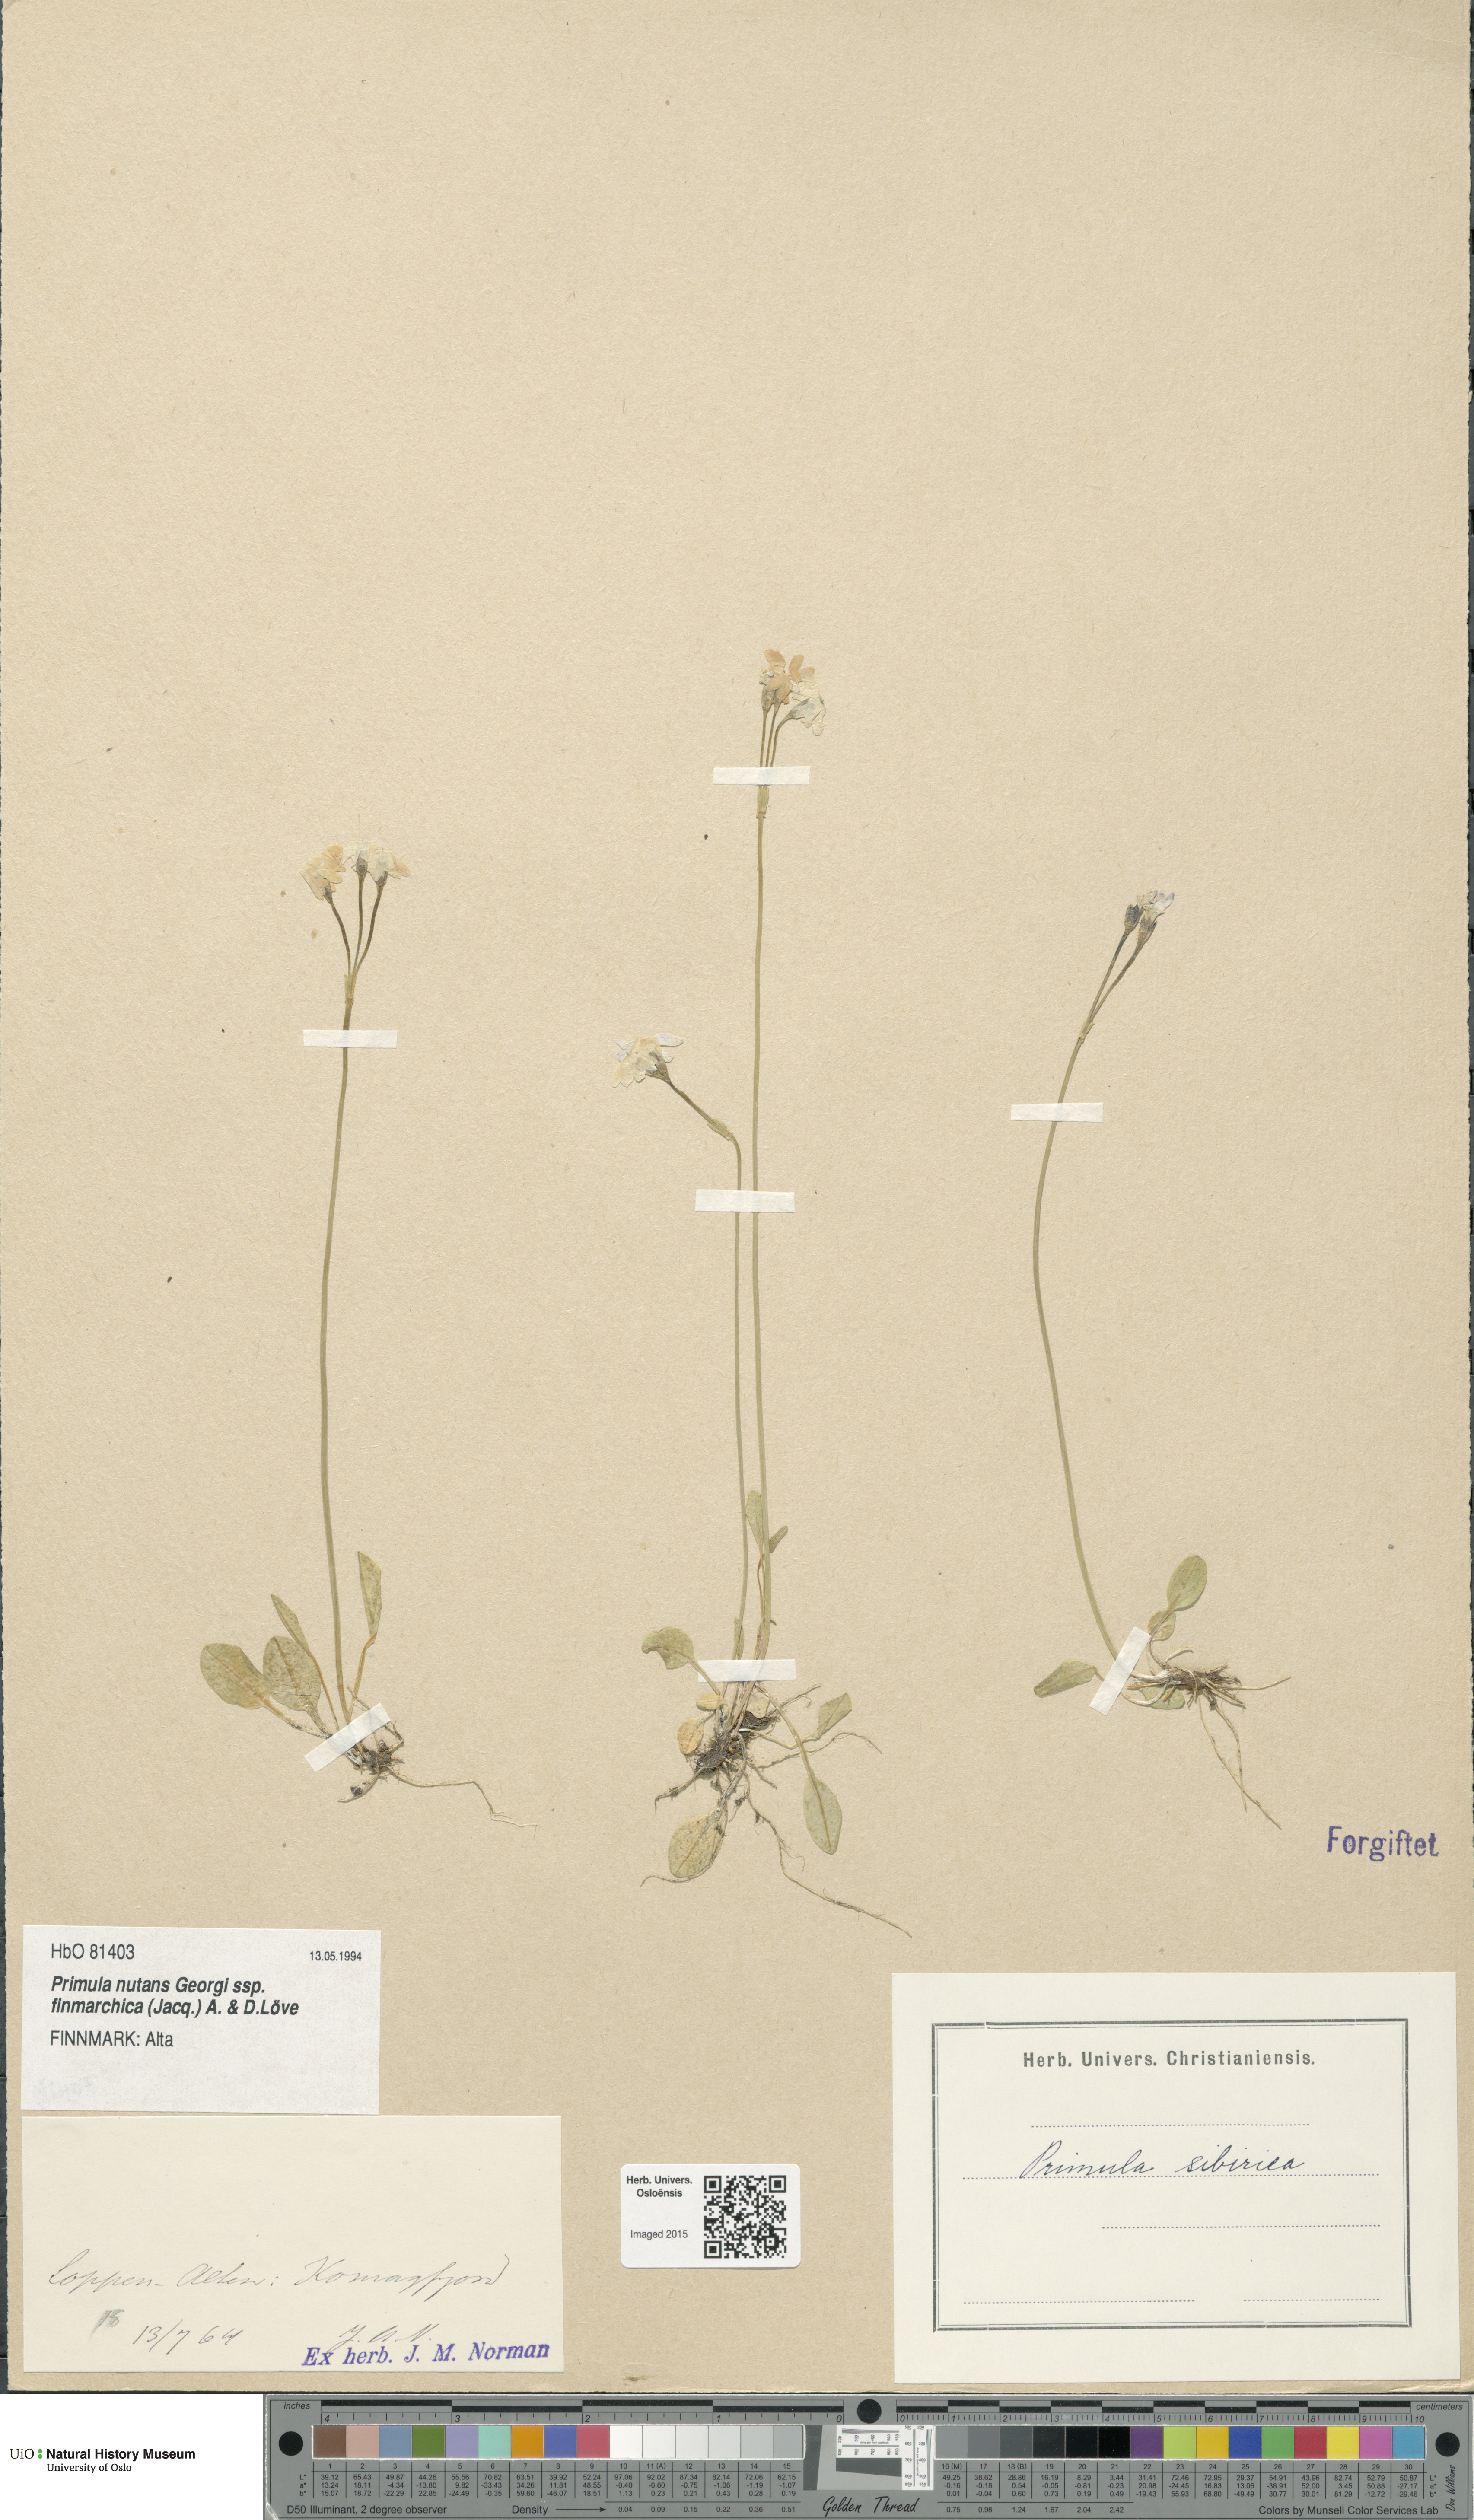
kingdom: Plantae
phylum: Tracheophyta
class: Magnoliopsida
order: Ericales
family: Primulaceae
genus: Primula
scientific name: Primula nutans
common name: Siberian primrose
